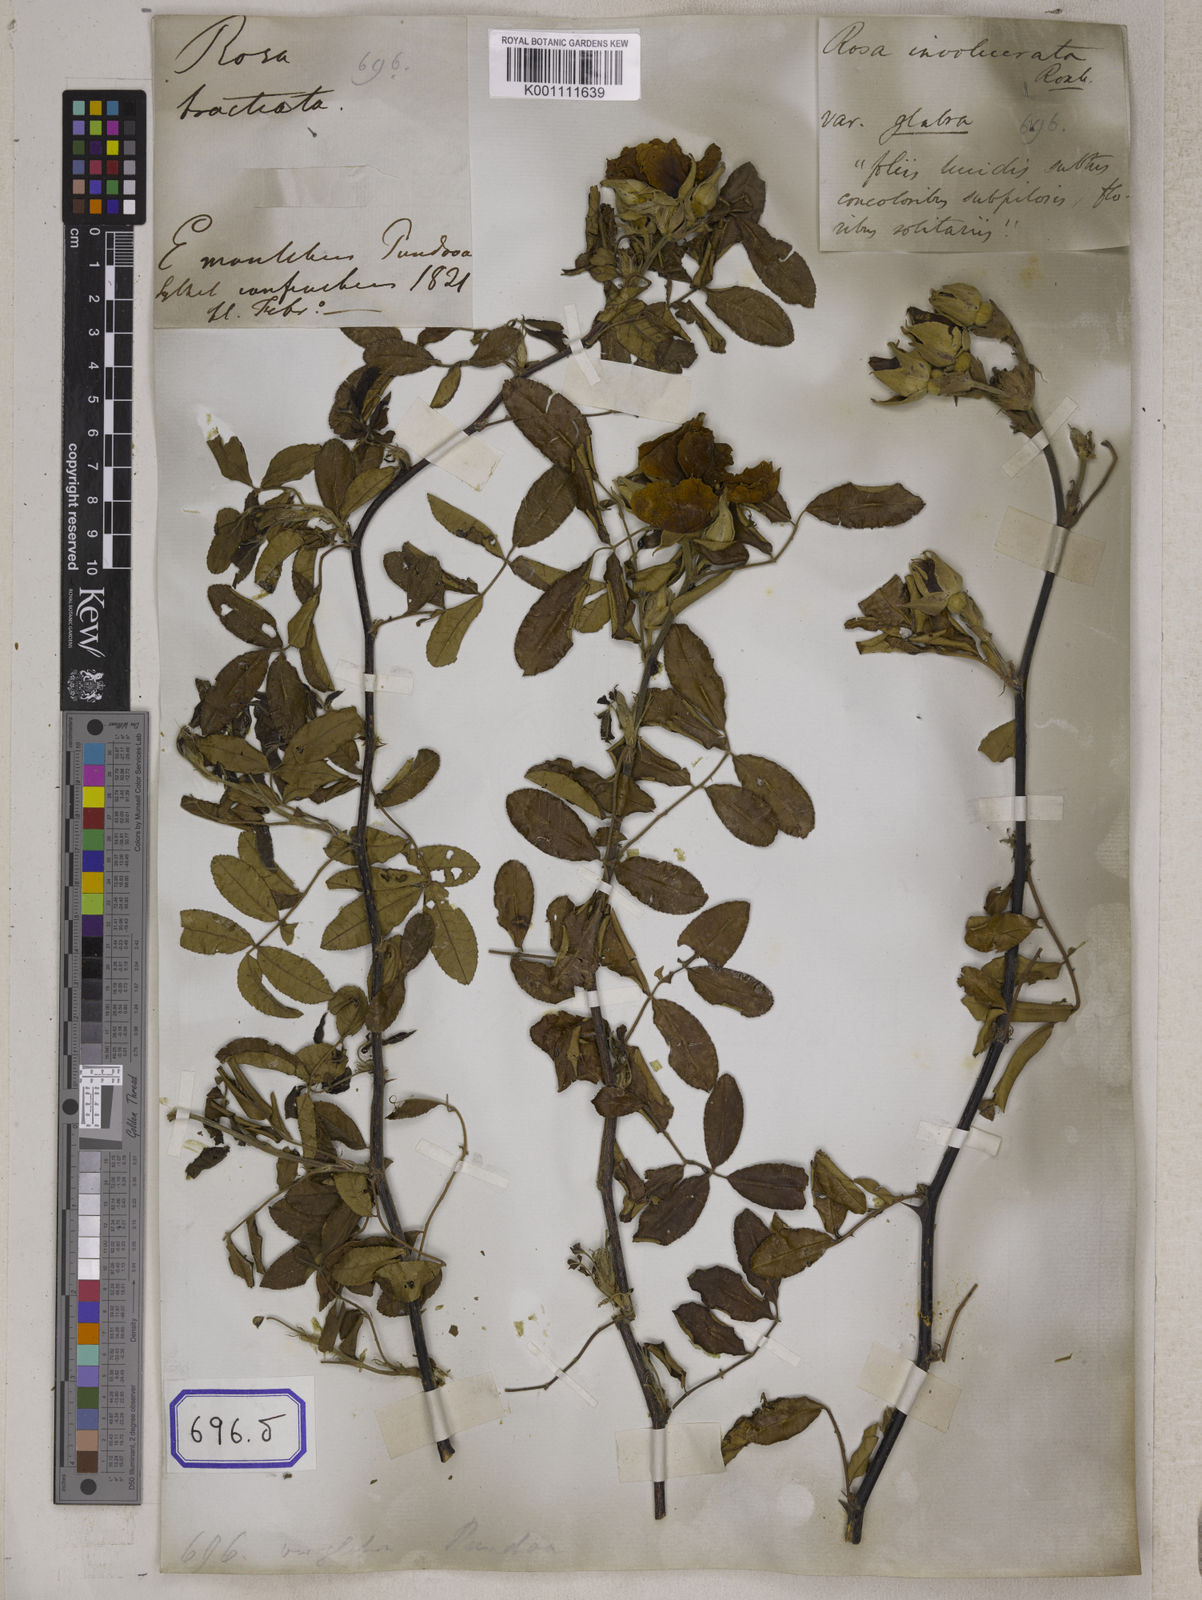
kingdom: Plantae
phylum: Tracheophyta
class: Magnoliopsida
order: Rosales
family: Rosaceae
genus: Rosa
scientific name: Rosa
